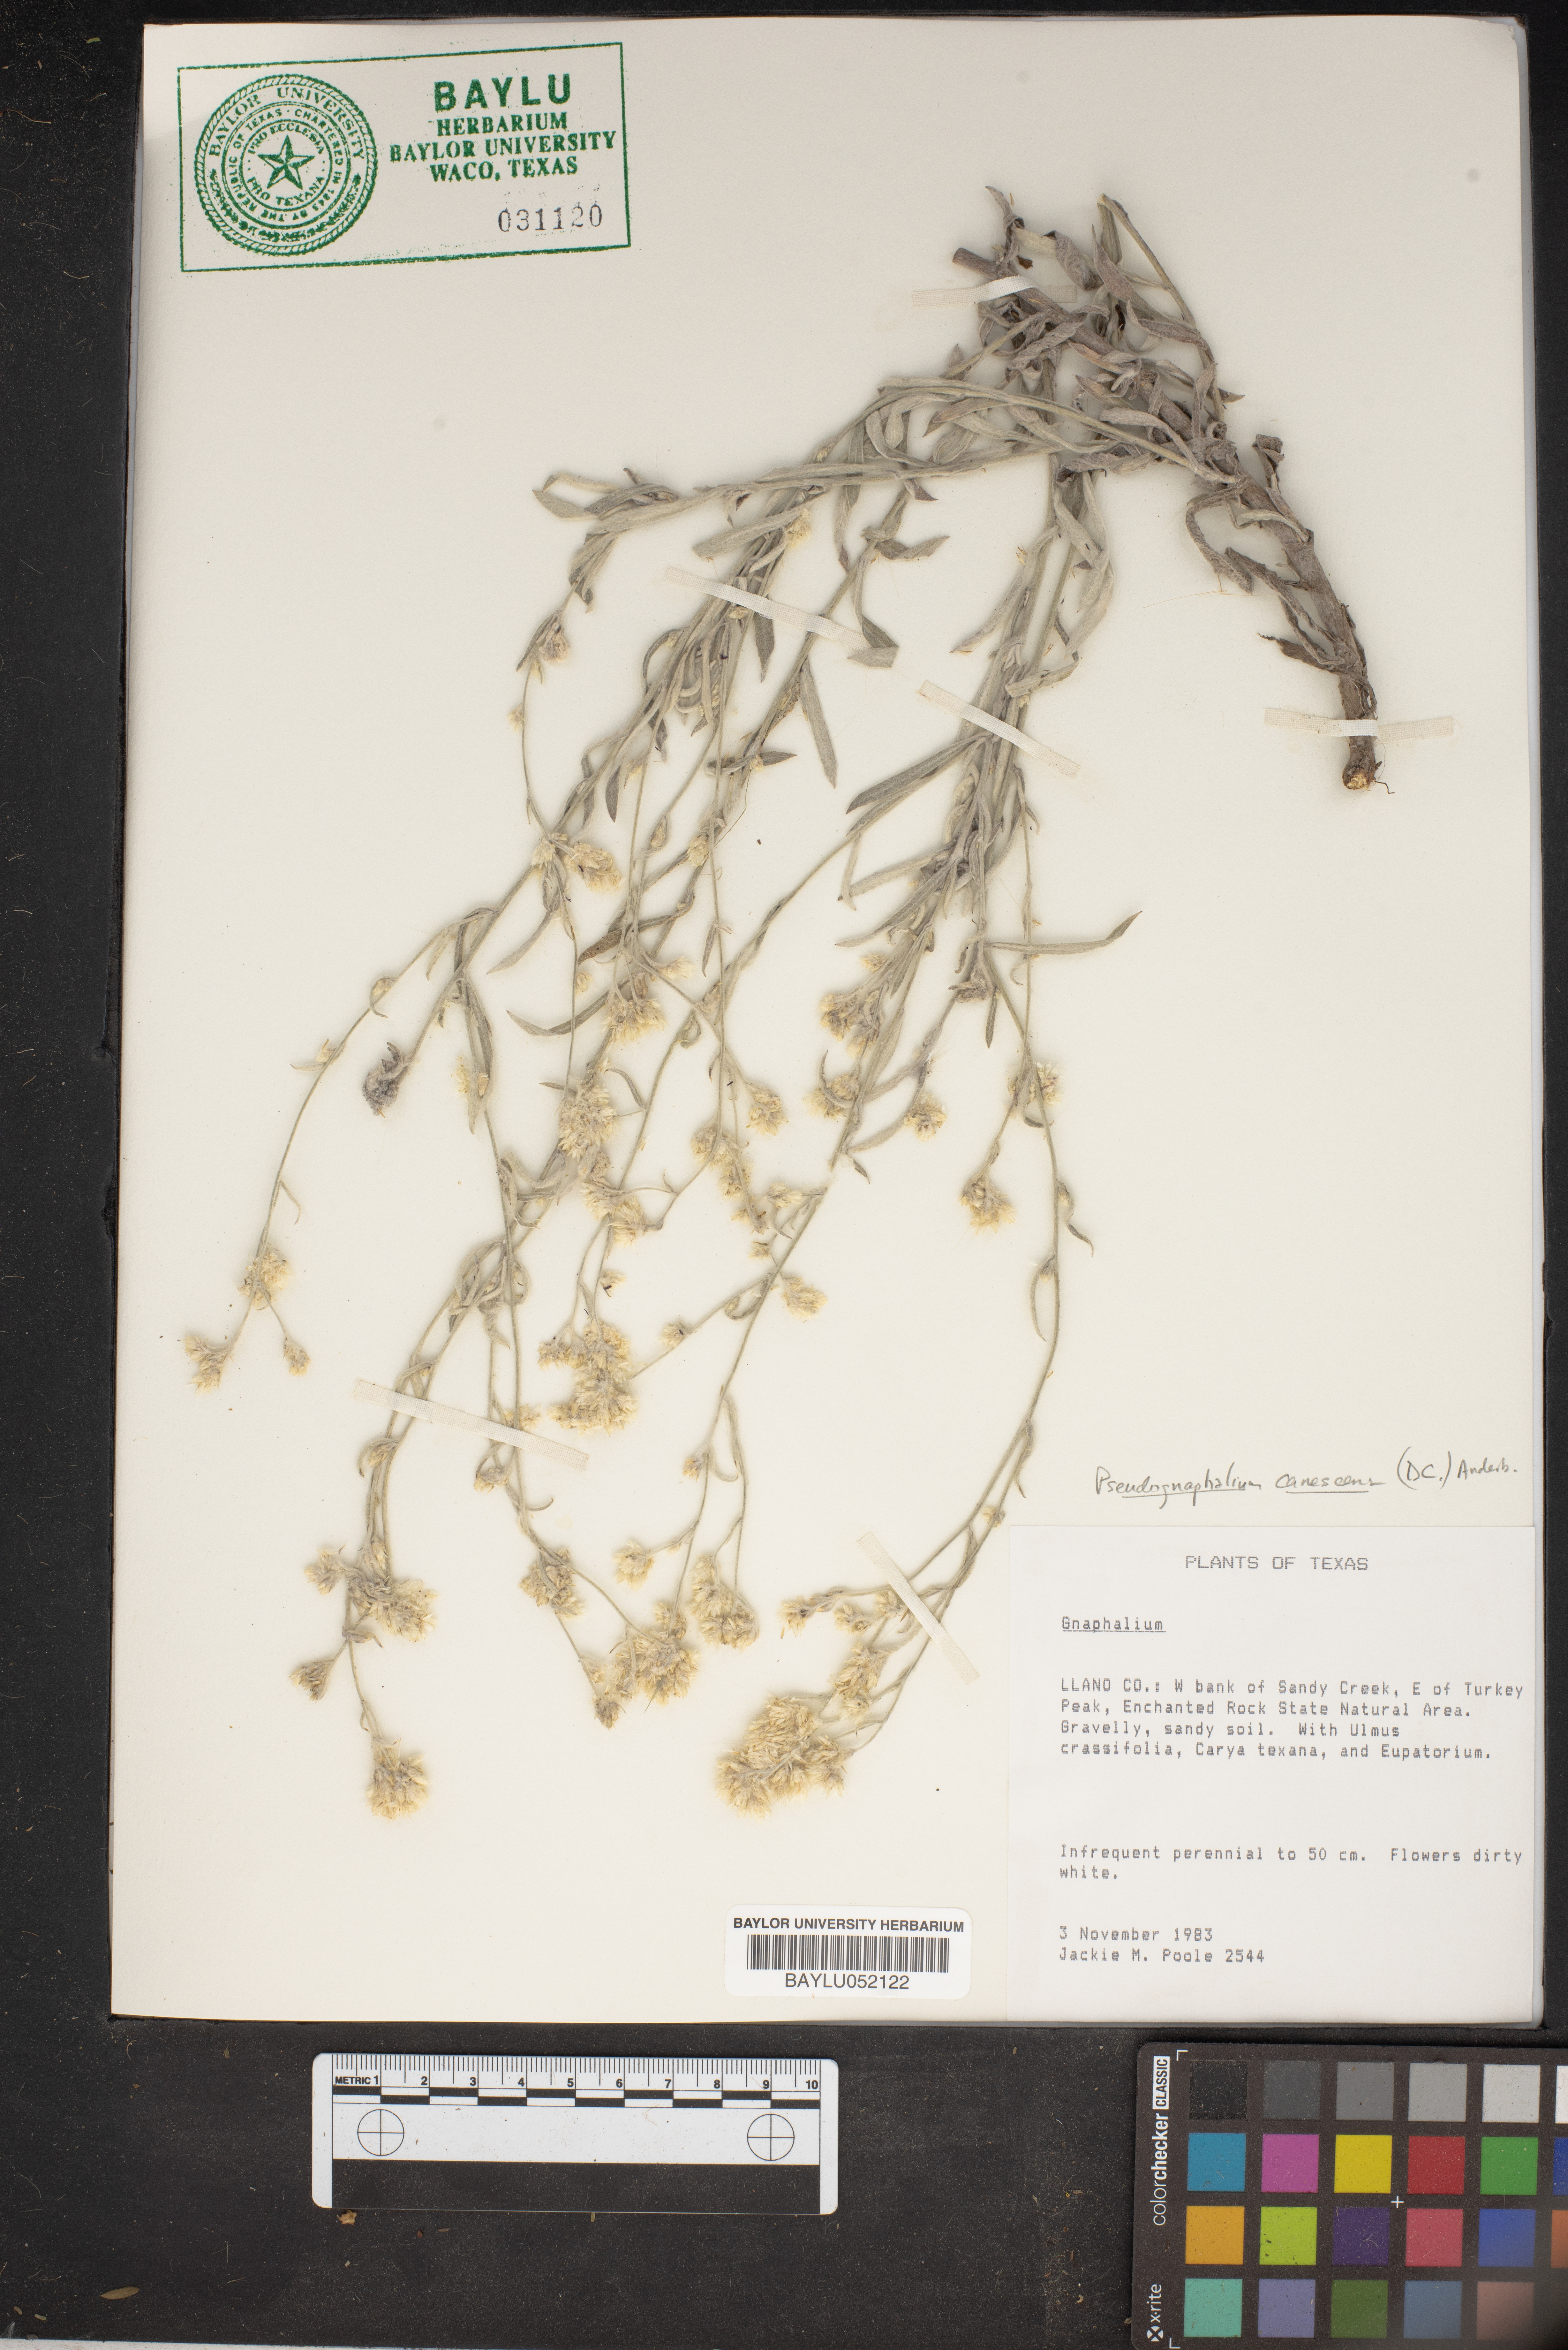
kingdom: Plantae
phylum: Tracheophyta
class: Magnoliopsida
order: Asterales
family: Asteraceae
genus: Pseudognaphalium
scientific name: Pseudognaphalium canescens
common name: Wright's rabbit-tobacco
